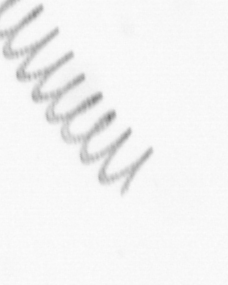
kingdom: Chromista
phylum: Ochrophyta
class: Bacillariophyceae
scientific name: Bacillariophyceae
